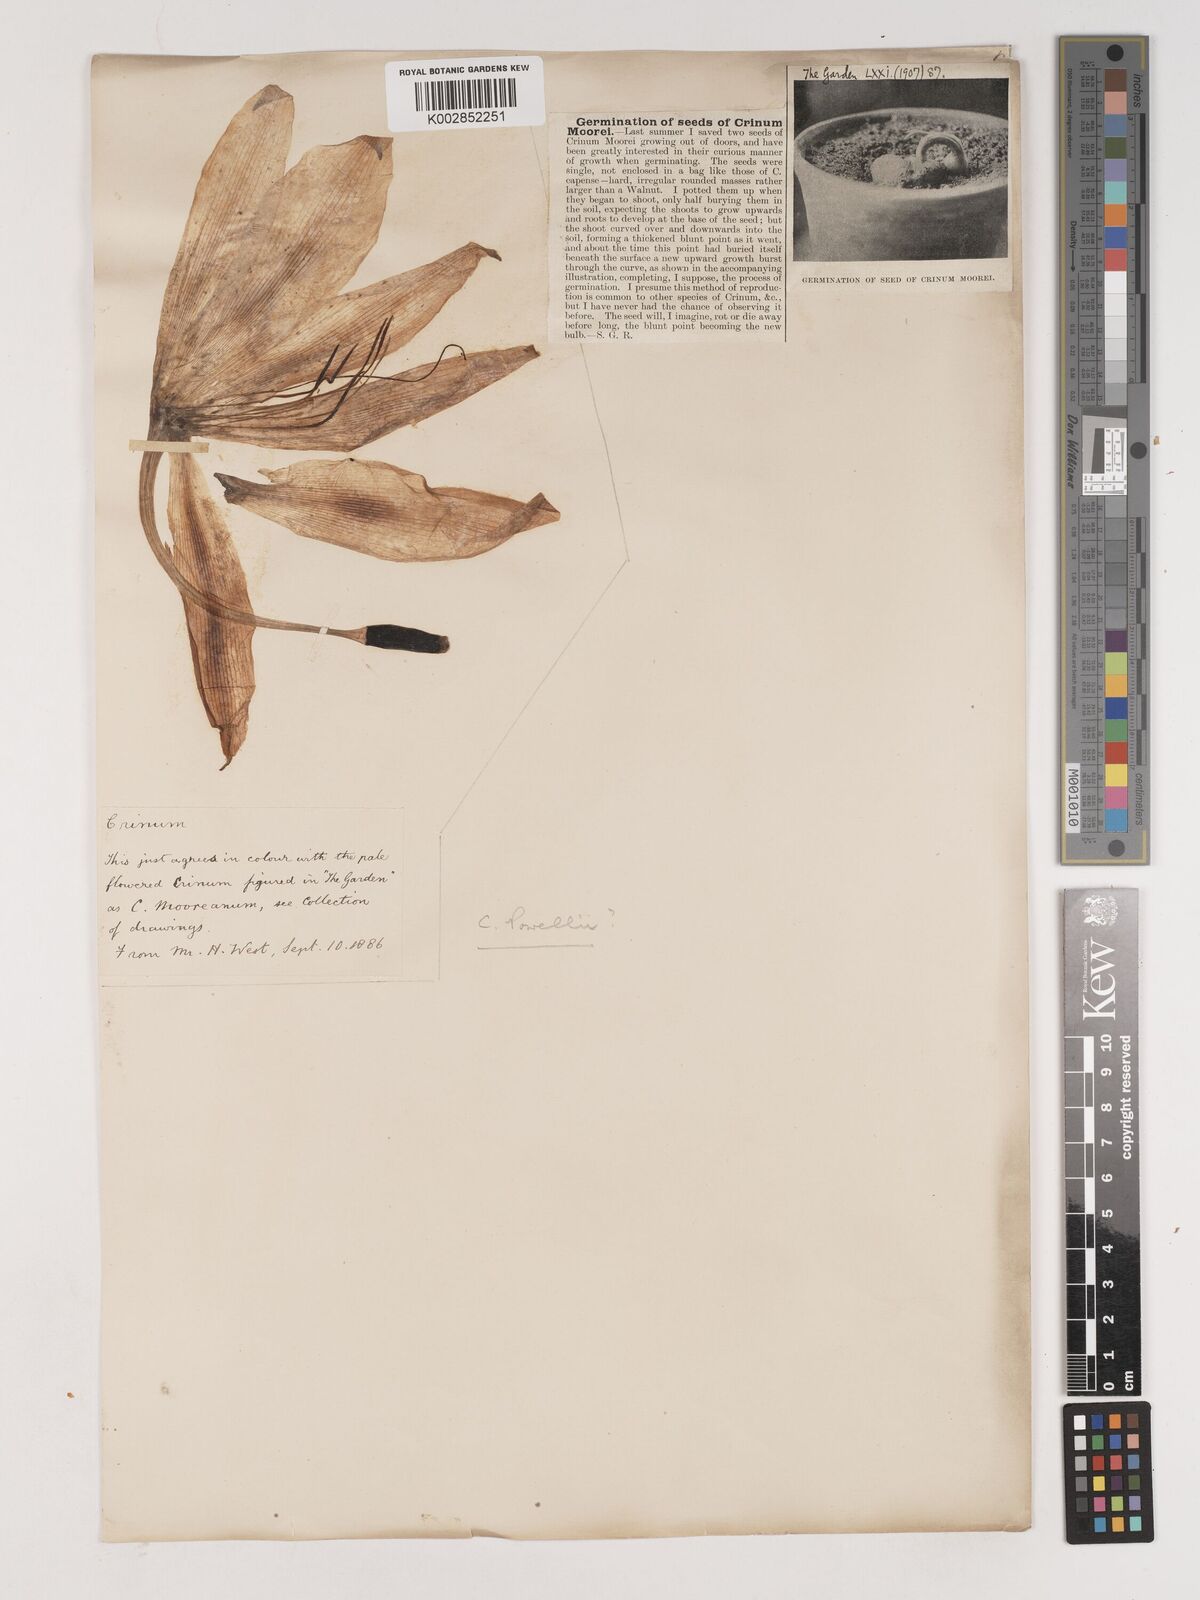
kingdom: Plantae
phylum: Tracheophyta
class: Liliopsida
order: Asparagales
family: Amaryllidaceae
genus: Crinum
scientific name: Crinum moorei
